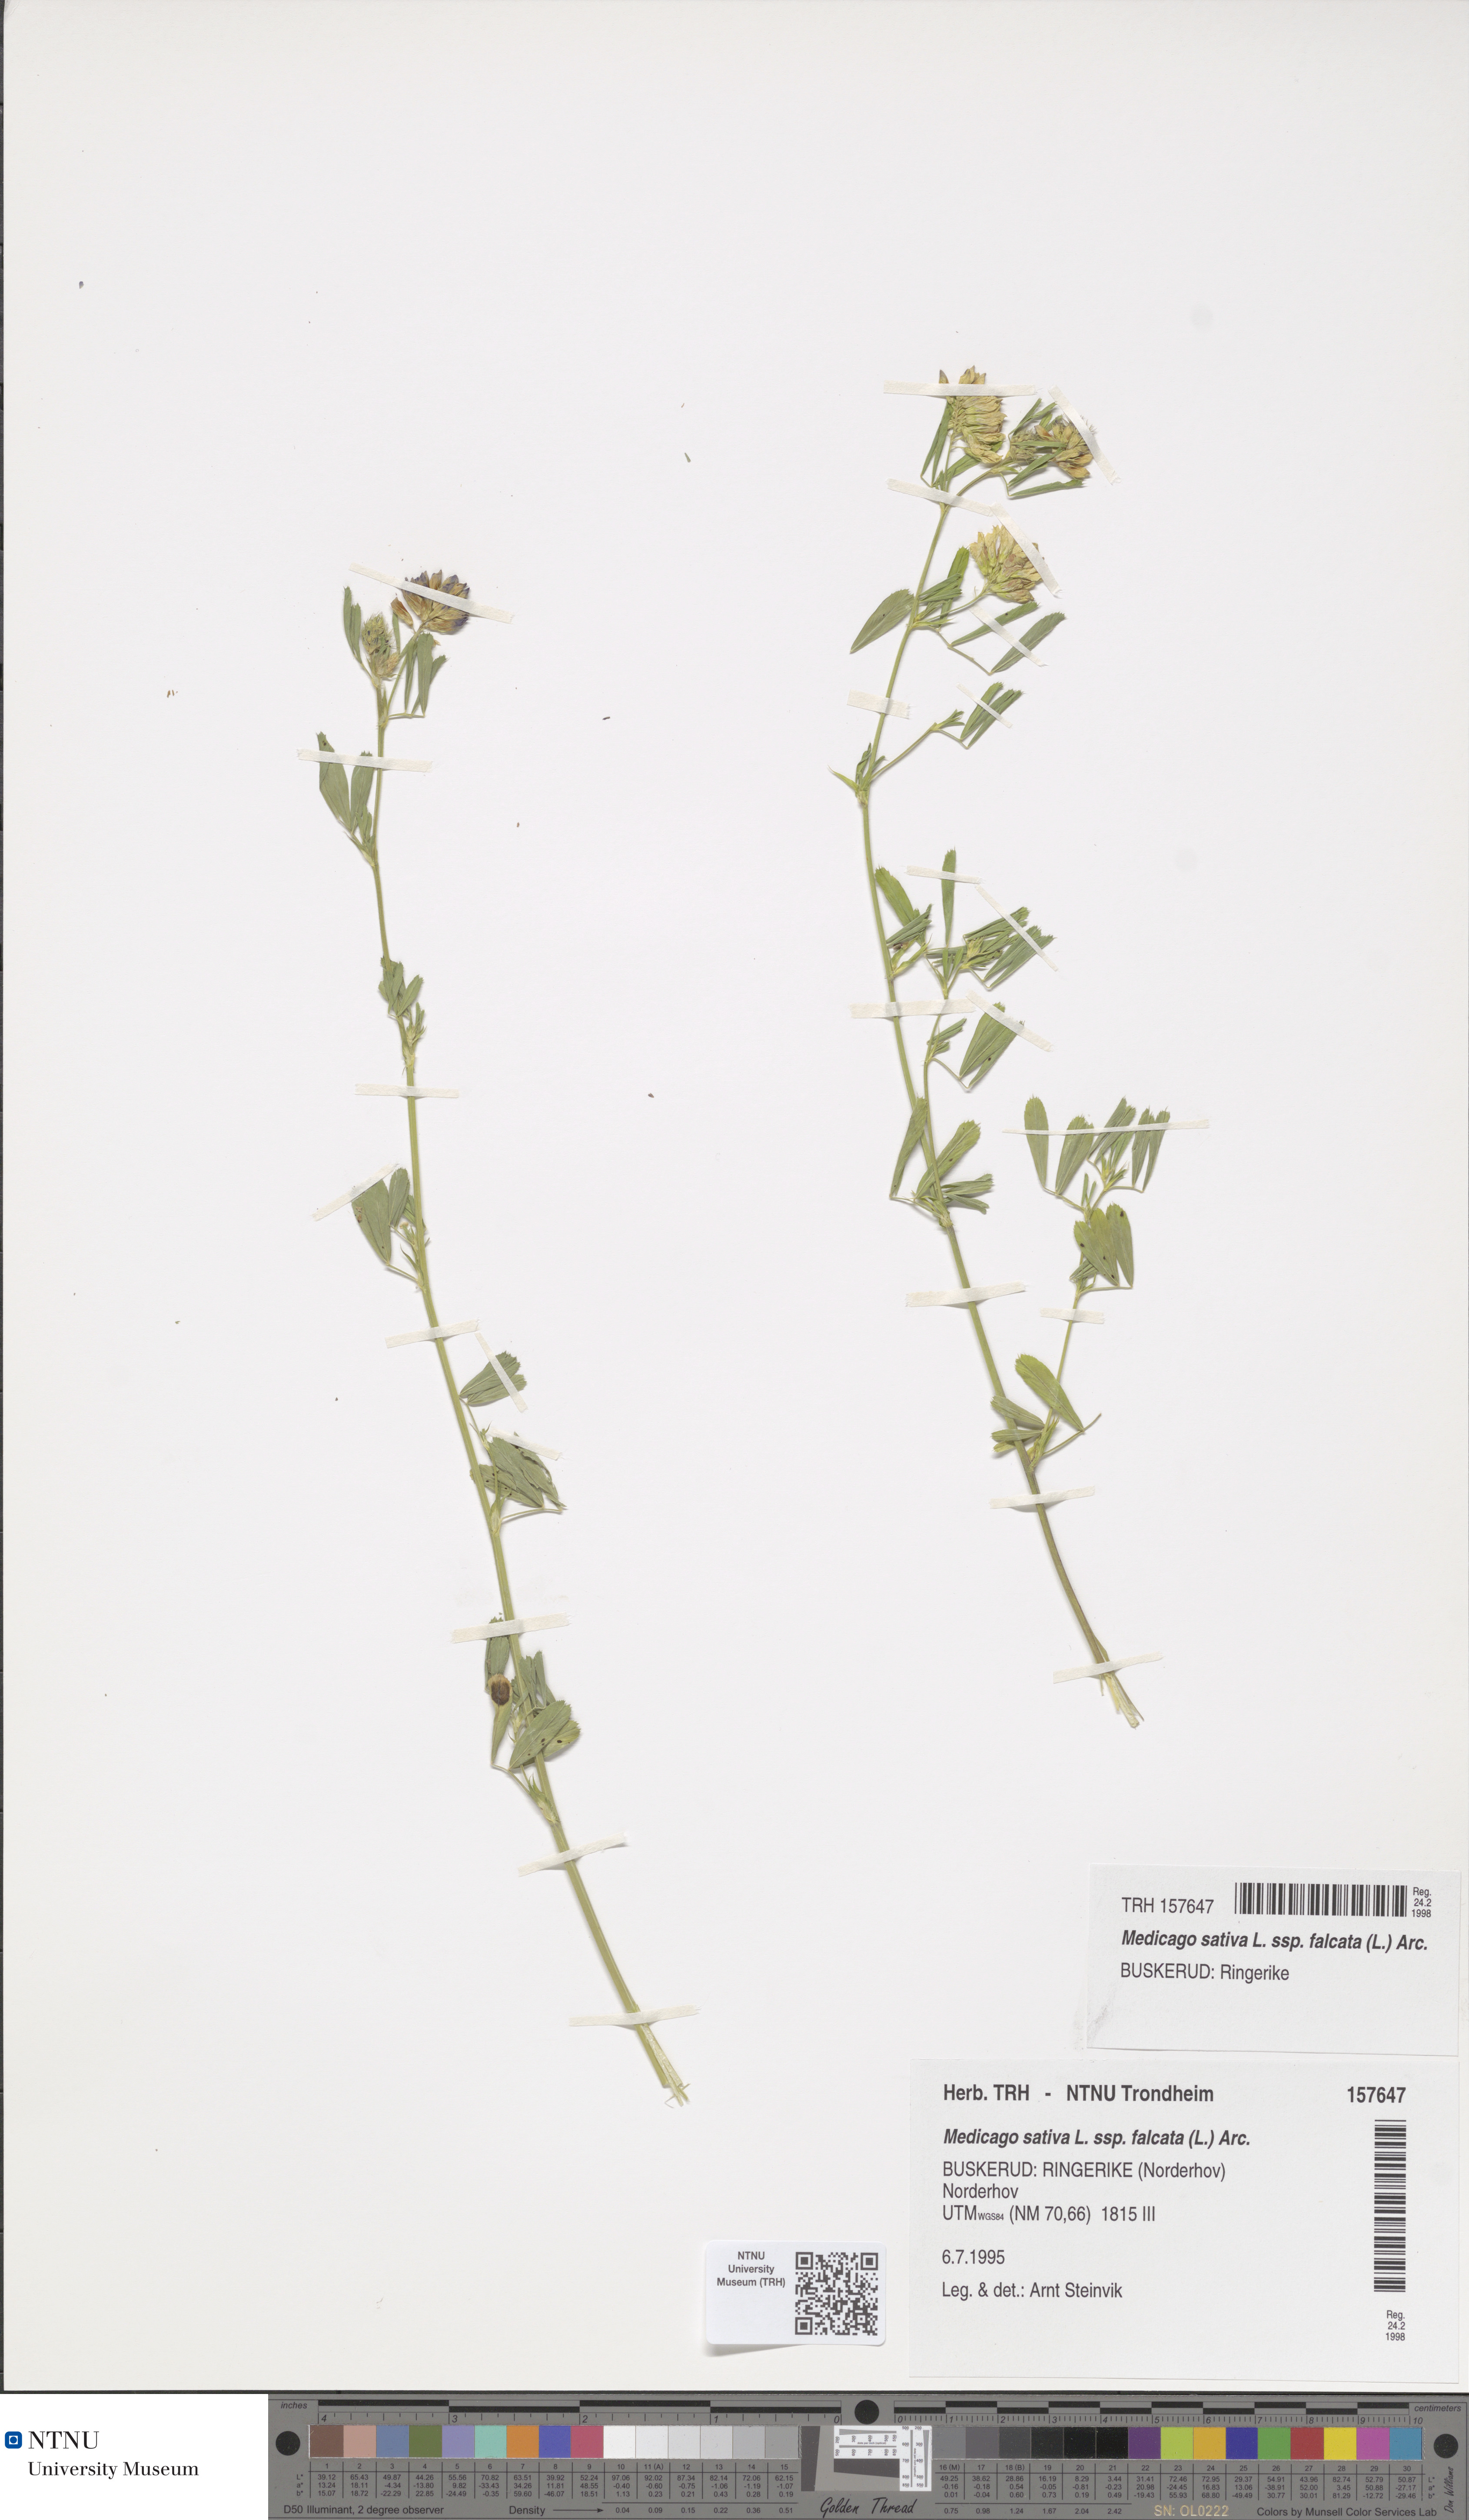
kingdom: Plantae
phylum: Tracheophyta
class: Magnoliopsida
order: Fabales
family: Fabaceae
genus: Medicago
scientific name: Medicago falcata
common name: Sickle medick
